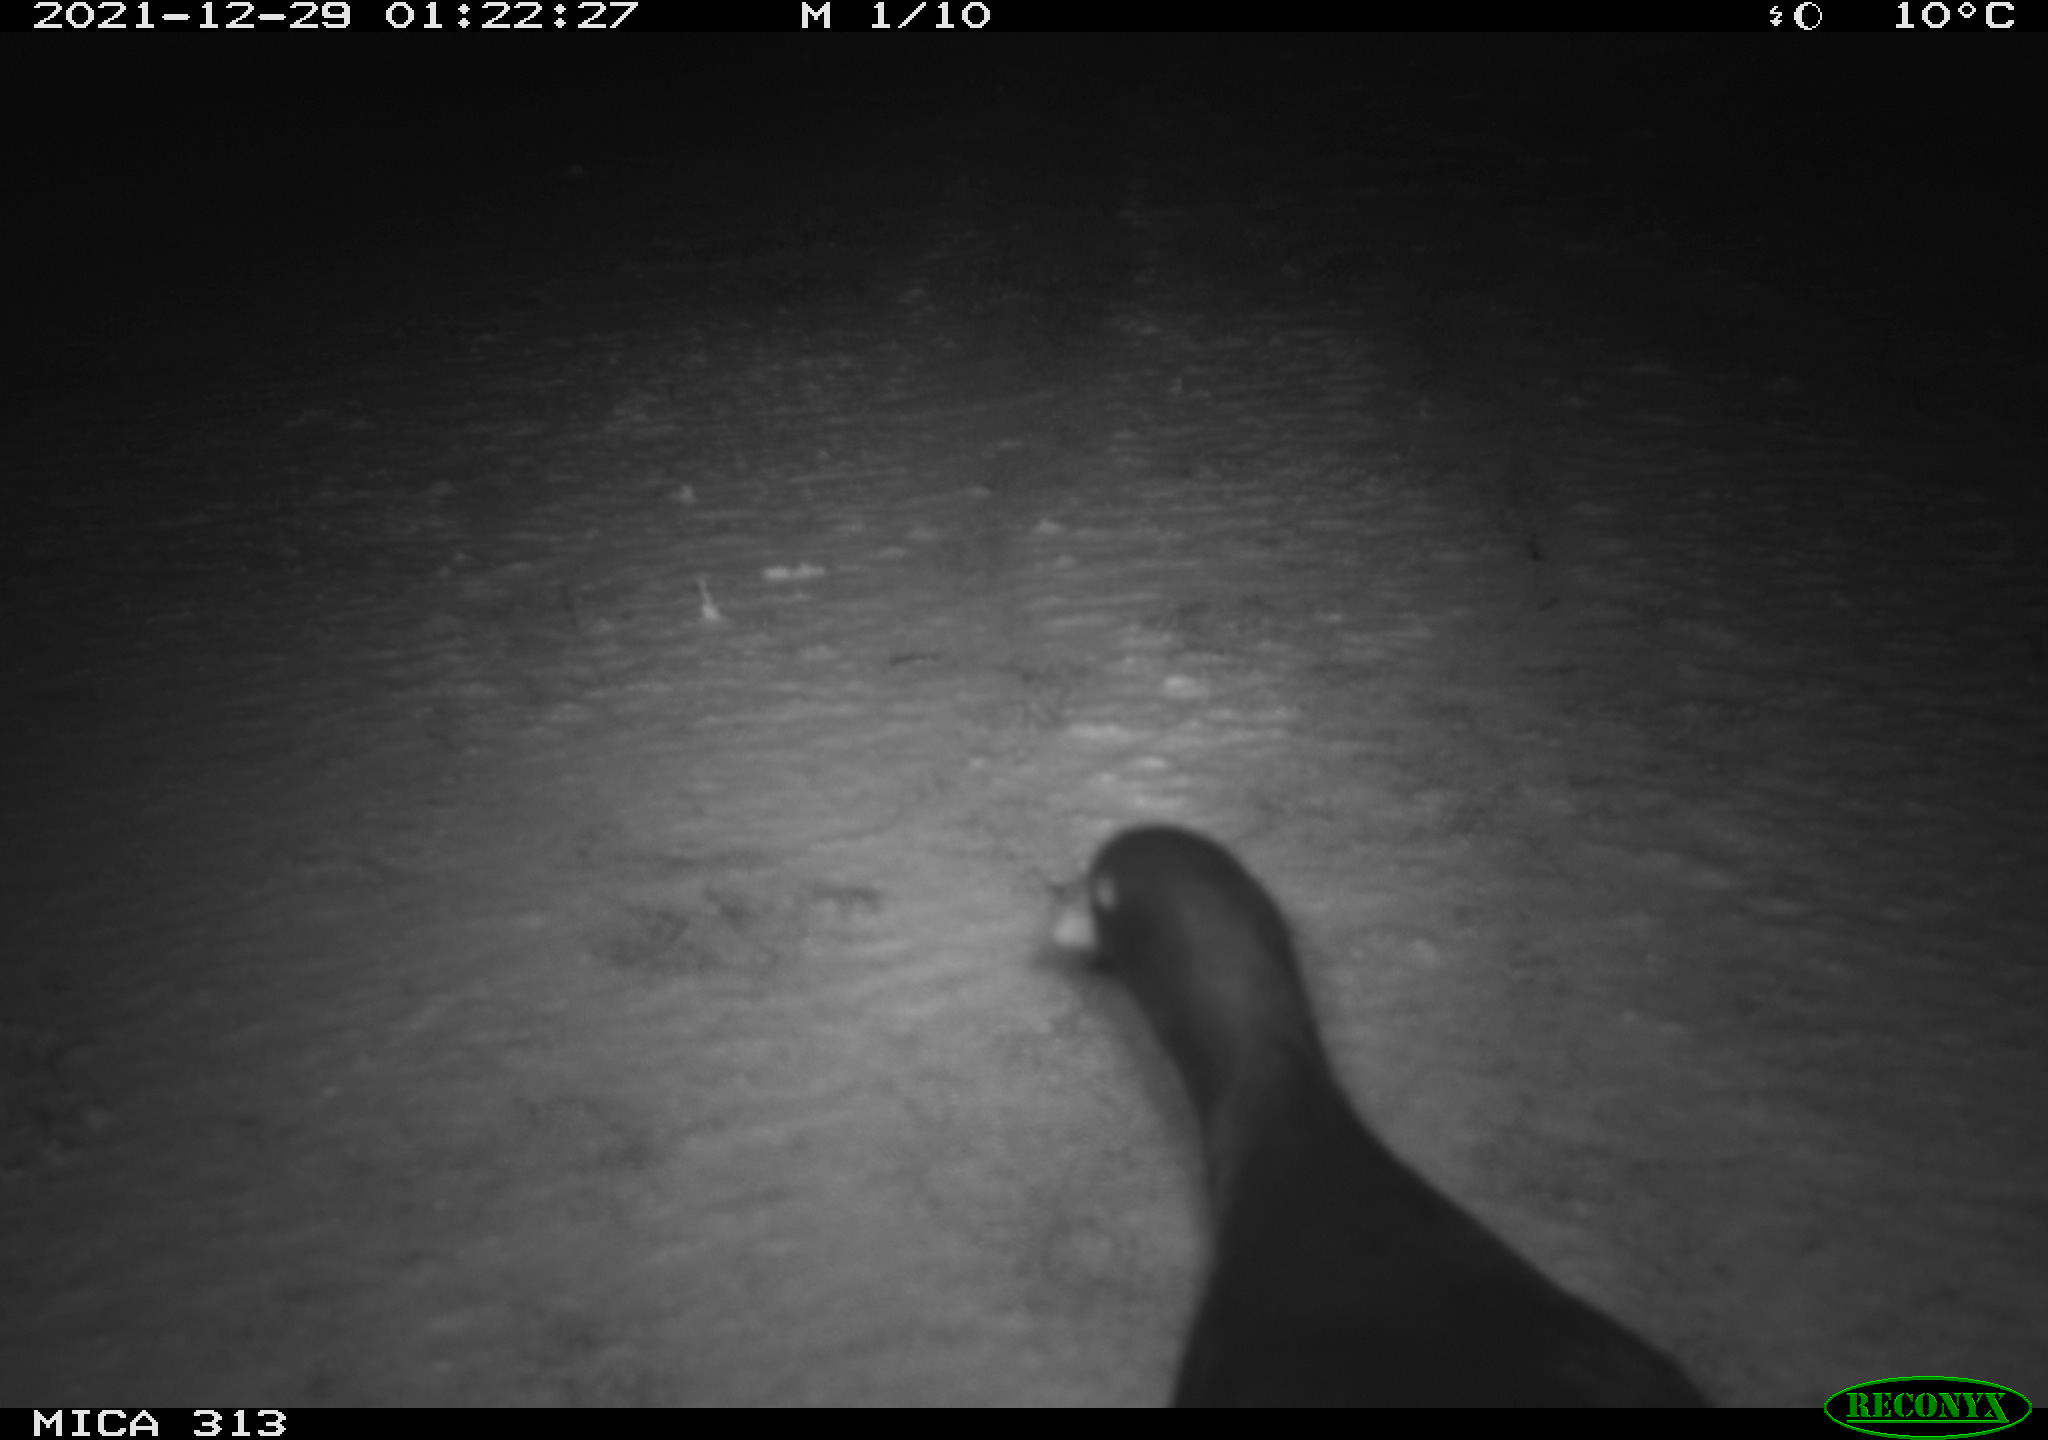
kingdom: Animalia
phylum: Chordata
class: Aves
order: Gruiformes
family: Rallidae
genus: Gallinula
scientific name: Gallinula chloropus
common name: Common moorhen
